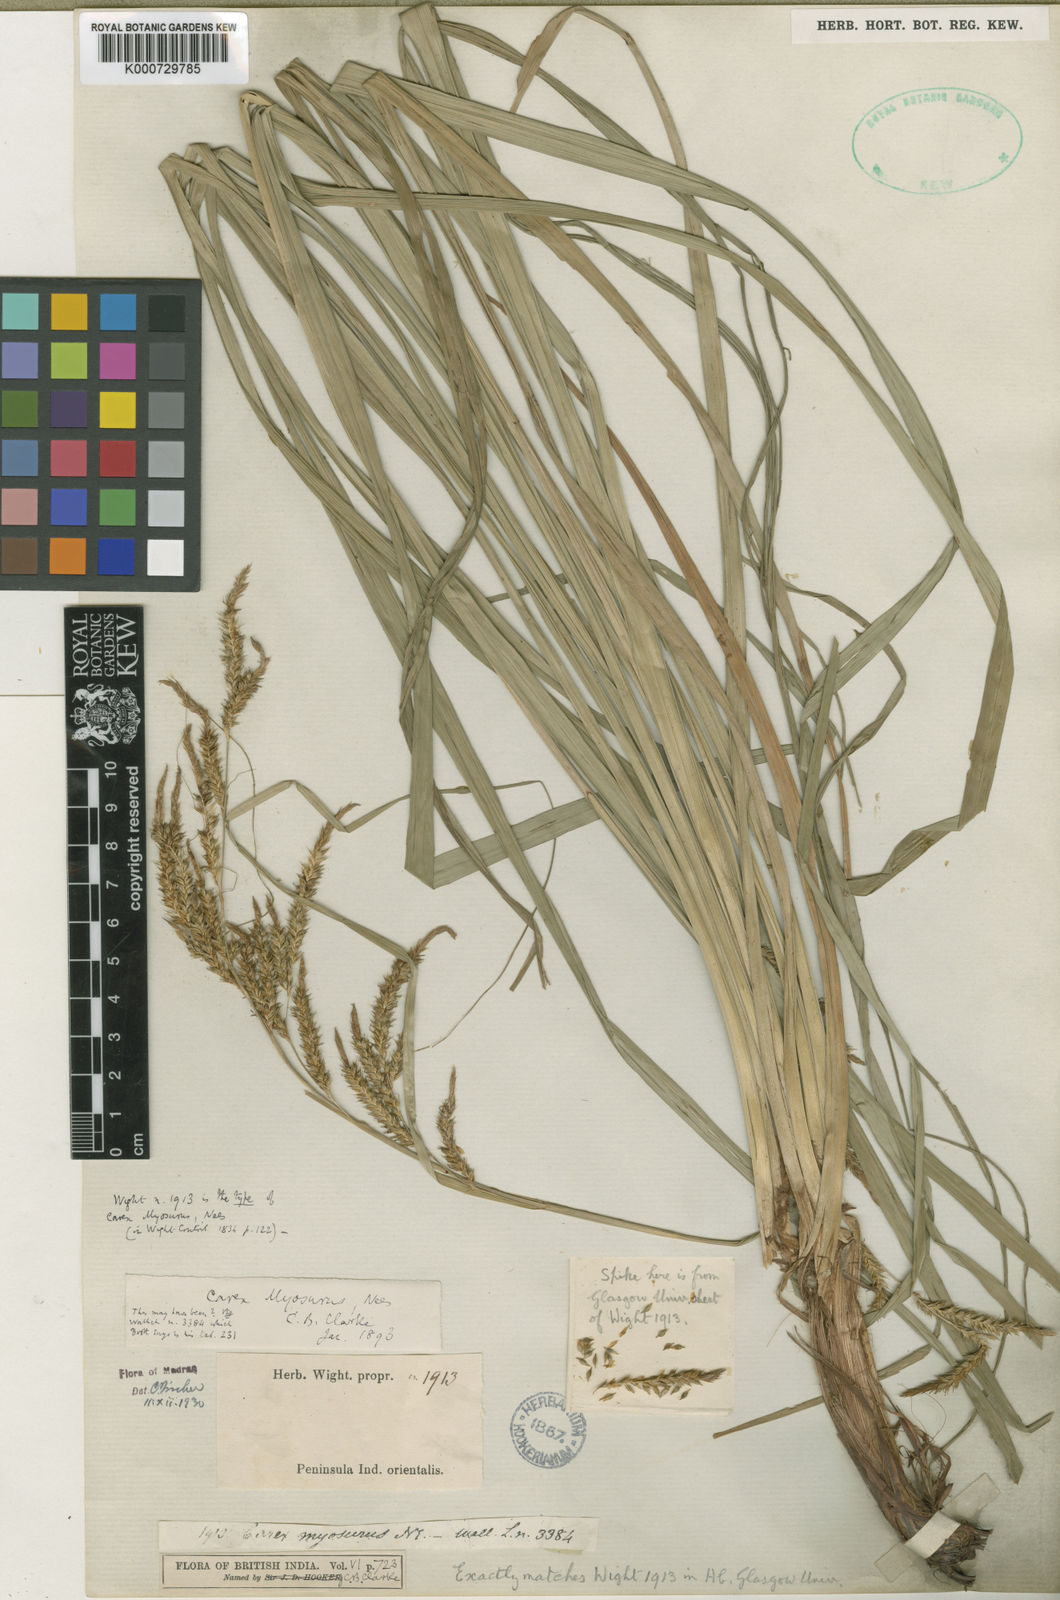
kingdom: Plantae
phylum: Tracheophyta
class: Liliopsida
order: Poales
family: Cyperaceae
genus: Carex
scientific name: Carex myosurus
